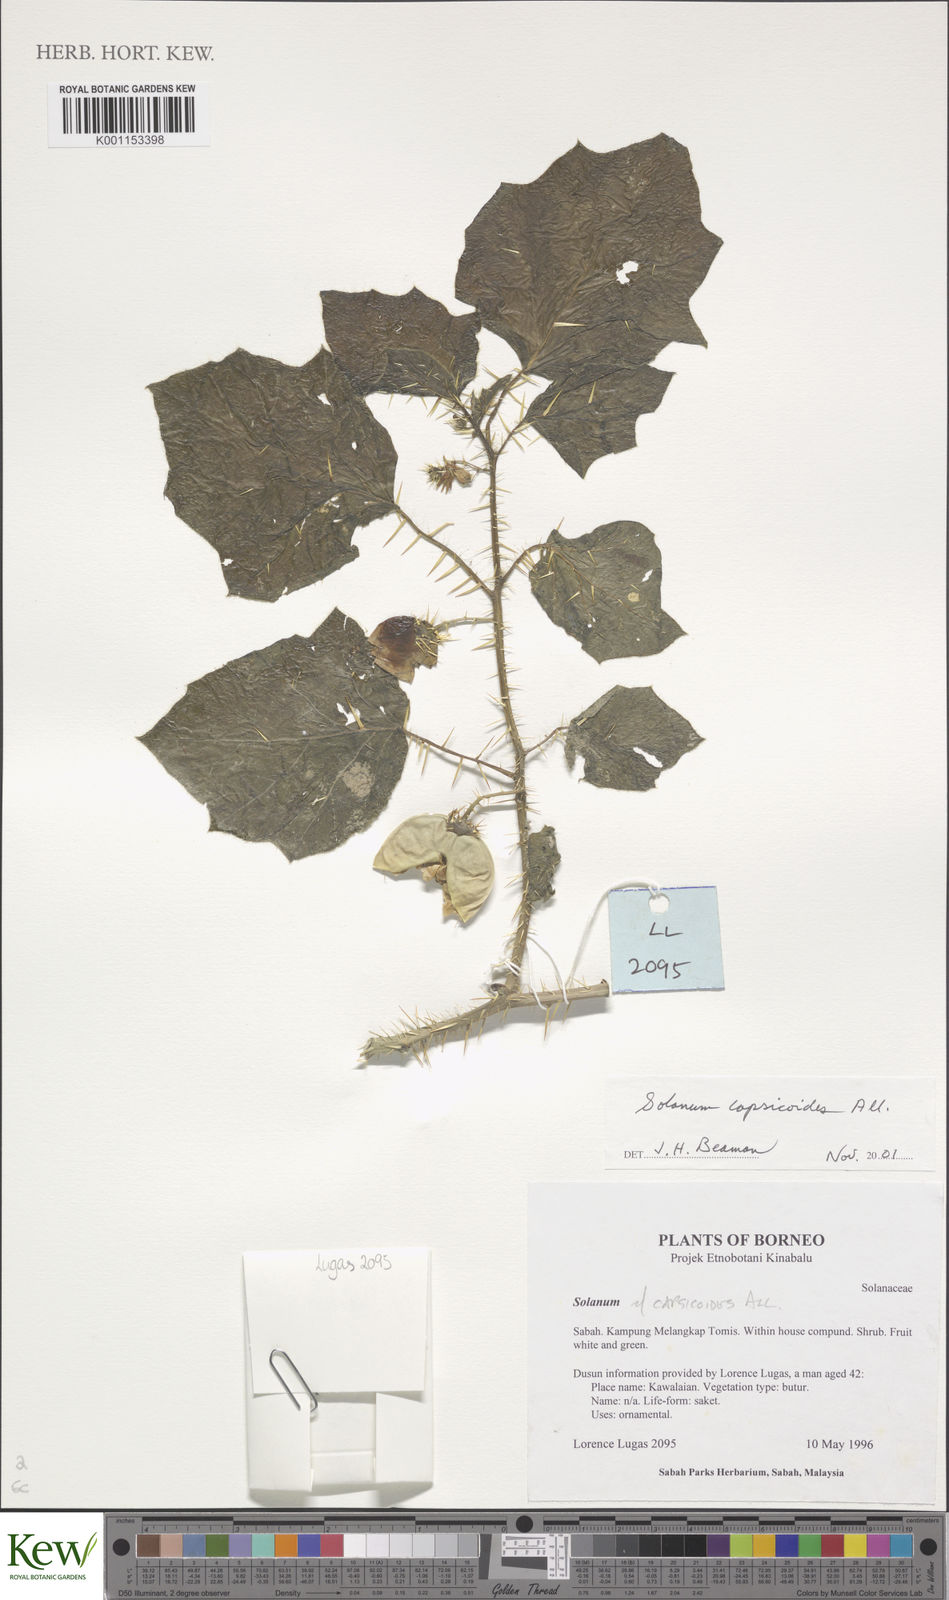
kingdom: Plantae
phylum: Tracheophyta
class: Magnoliopsida
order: Solanales
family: Solanaceae
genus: Solanum
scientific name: Solanum capsicoides
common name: Cockroach berry
